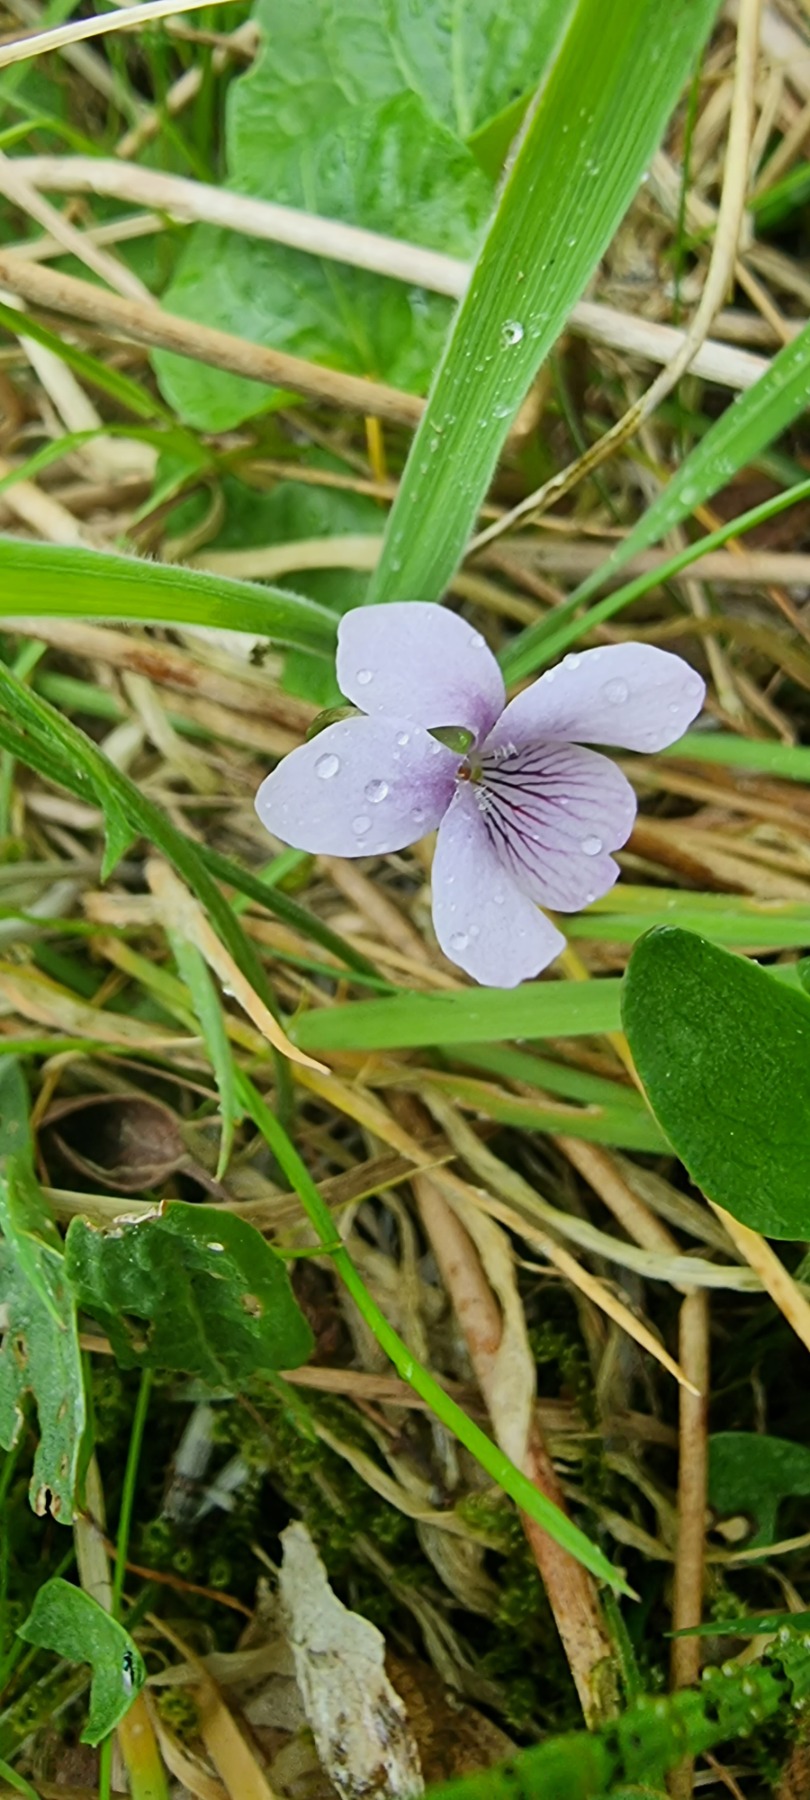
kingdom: Plantae
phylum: Tracheophyta
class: Magnoliopsida
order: Malpighiales
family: Violaceae
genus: Viola
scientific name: Viola palustris
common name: Eng-viol
